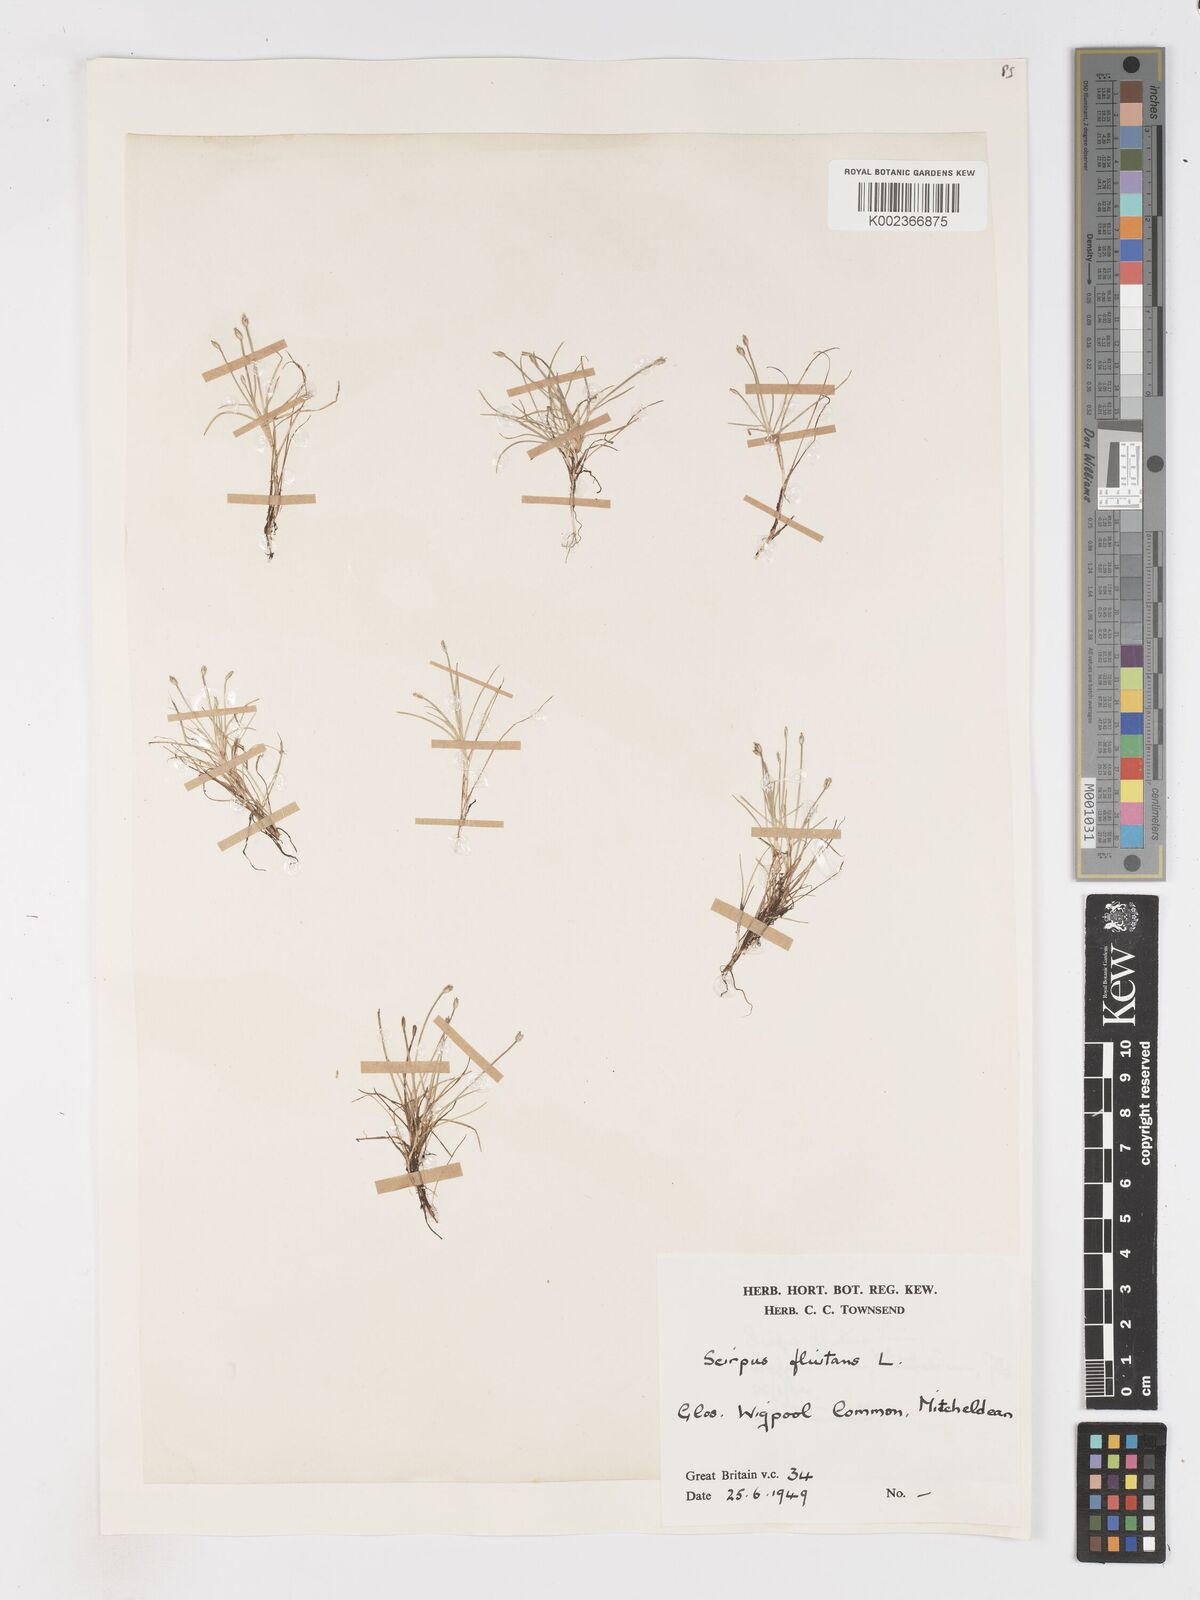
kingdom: Plantae
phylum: Tracheophyta
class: Liliopsida
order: Poales
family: Cyperaceae
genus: Isolepis
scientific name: Isolepis fluitans
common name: Floating club-rush
